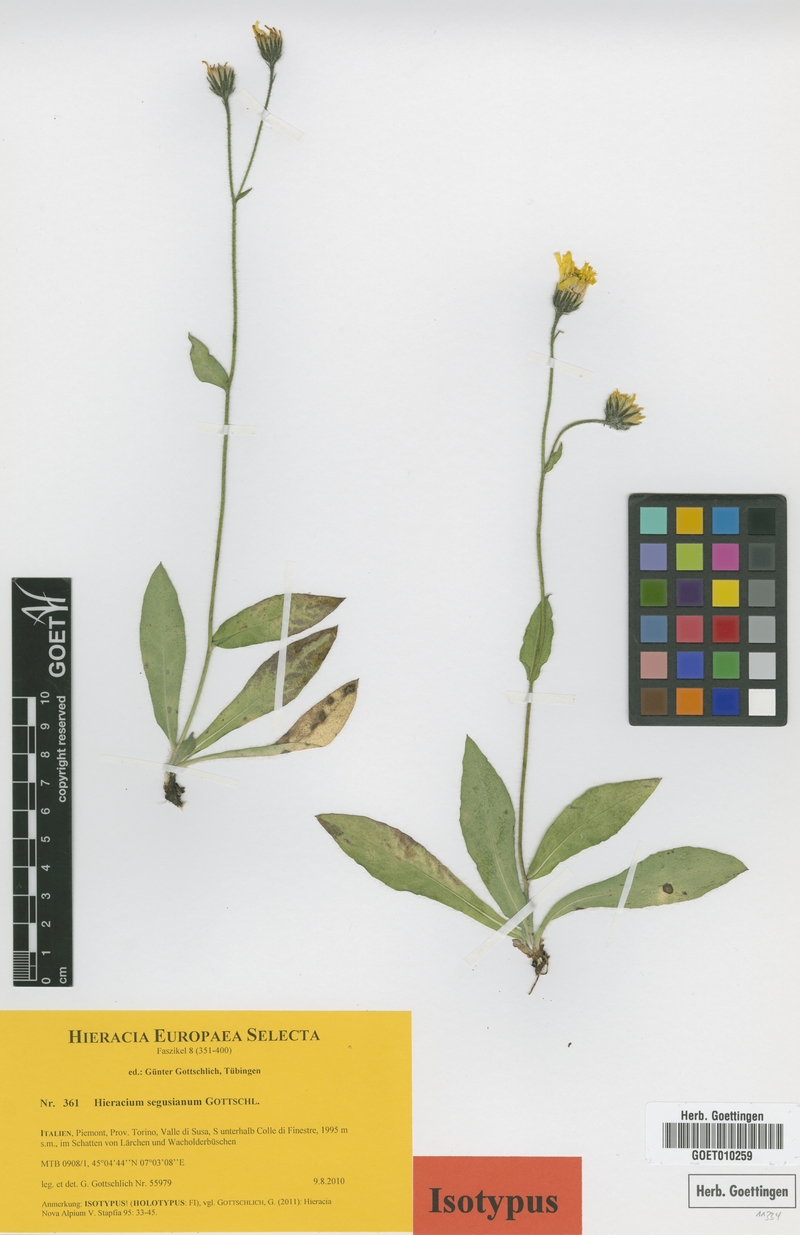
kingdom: Plantae
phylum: Tracheophyta
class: Magnoliopsida
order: Asterales
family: Asteraceae
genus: Hieracium
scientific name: Hieracium segusianum
